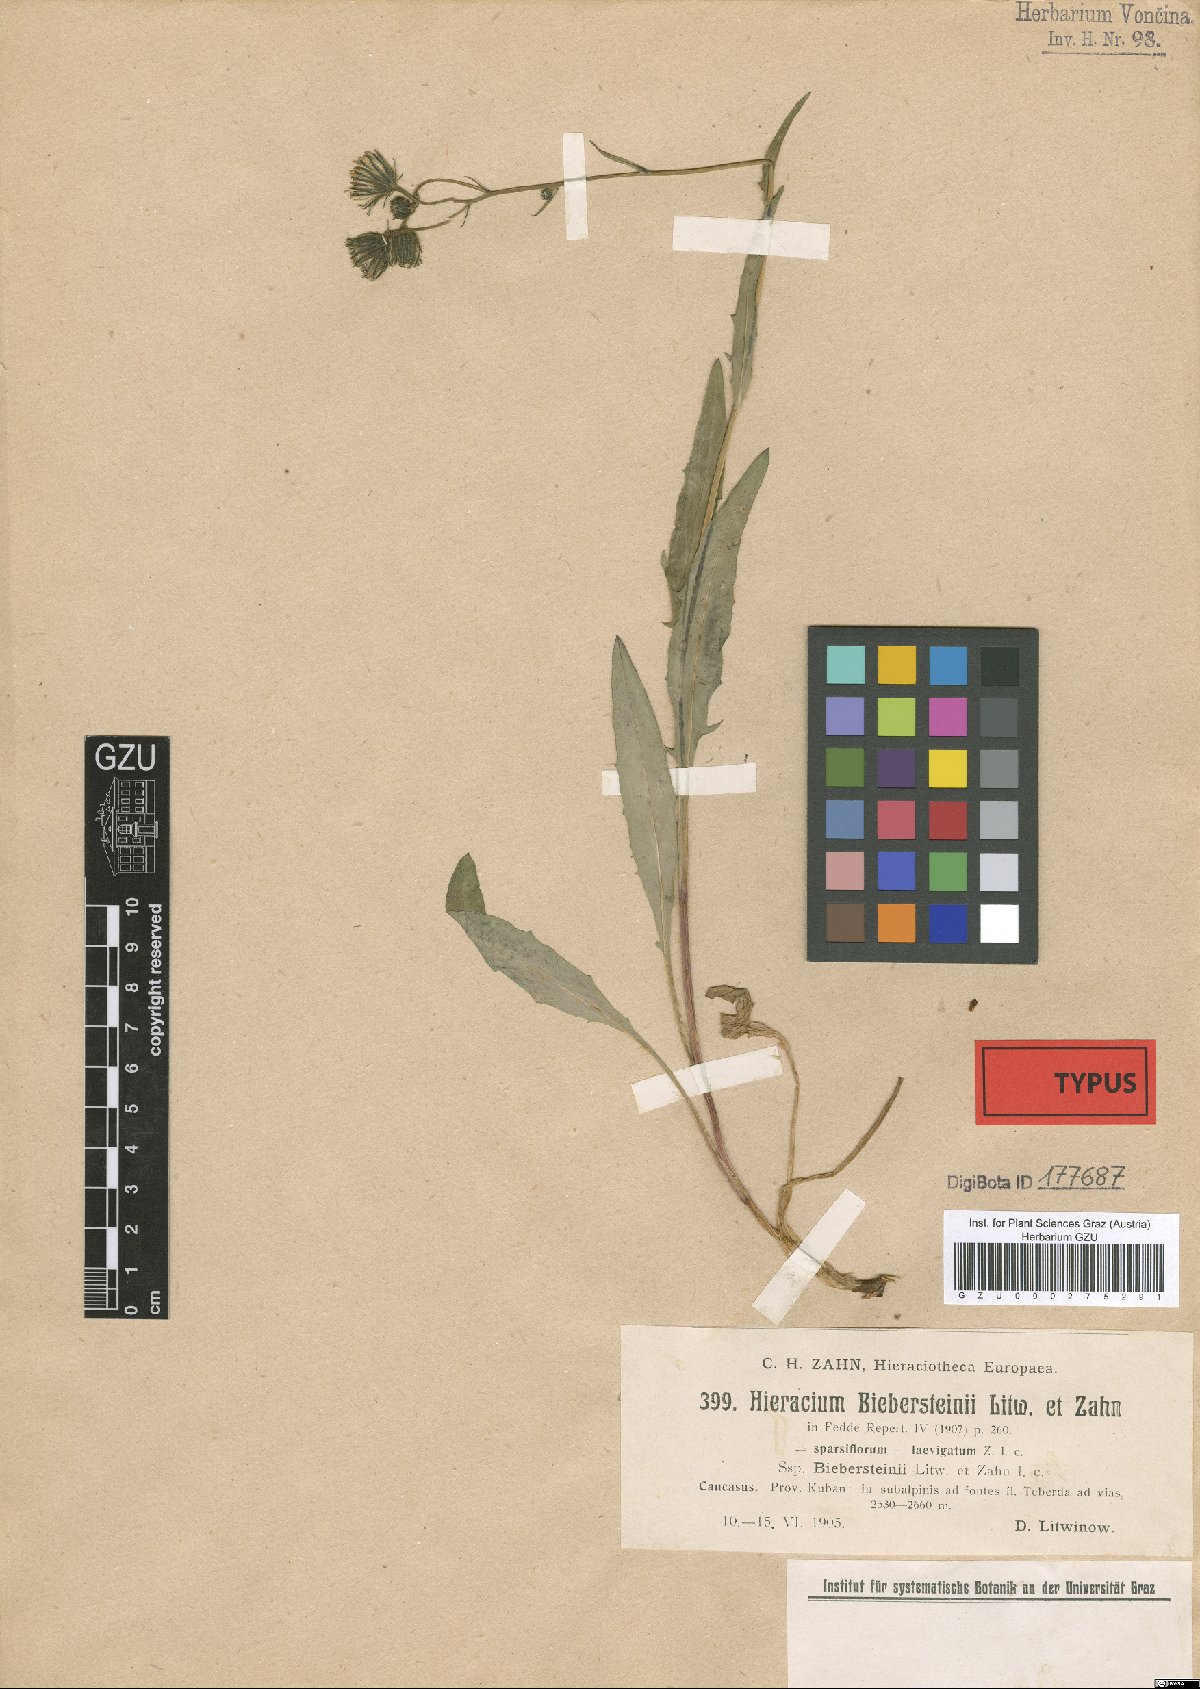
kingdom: Plantae
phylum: Tracheophyta
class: Magnoliopsida
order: Asterales
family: Asteraceae
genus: Hieracium
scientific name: Hieracium caucasiense
